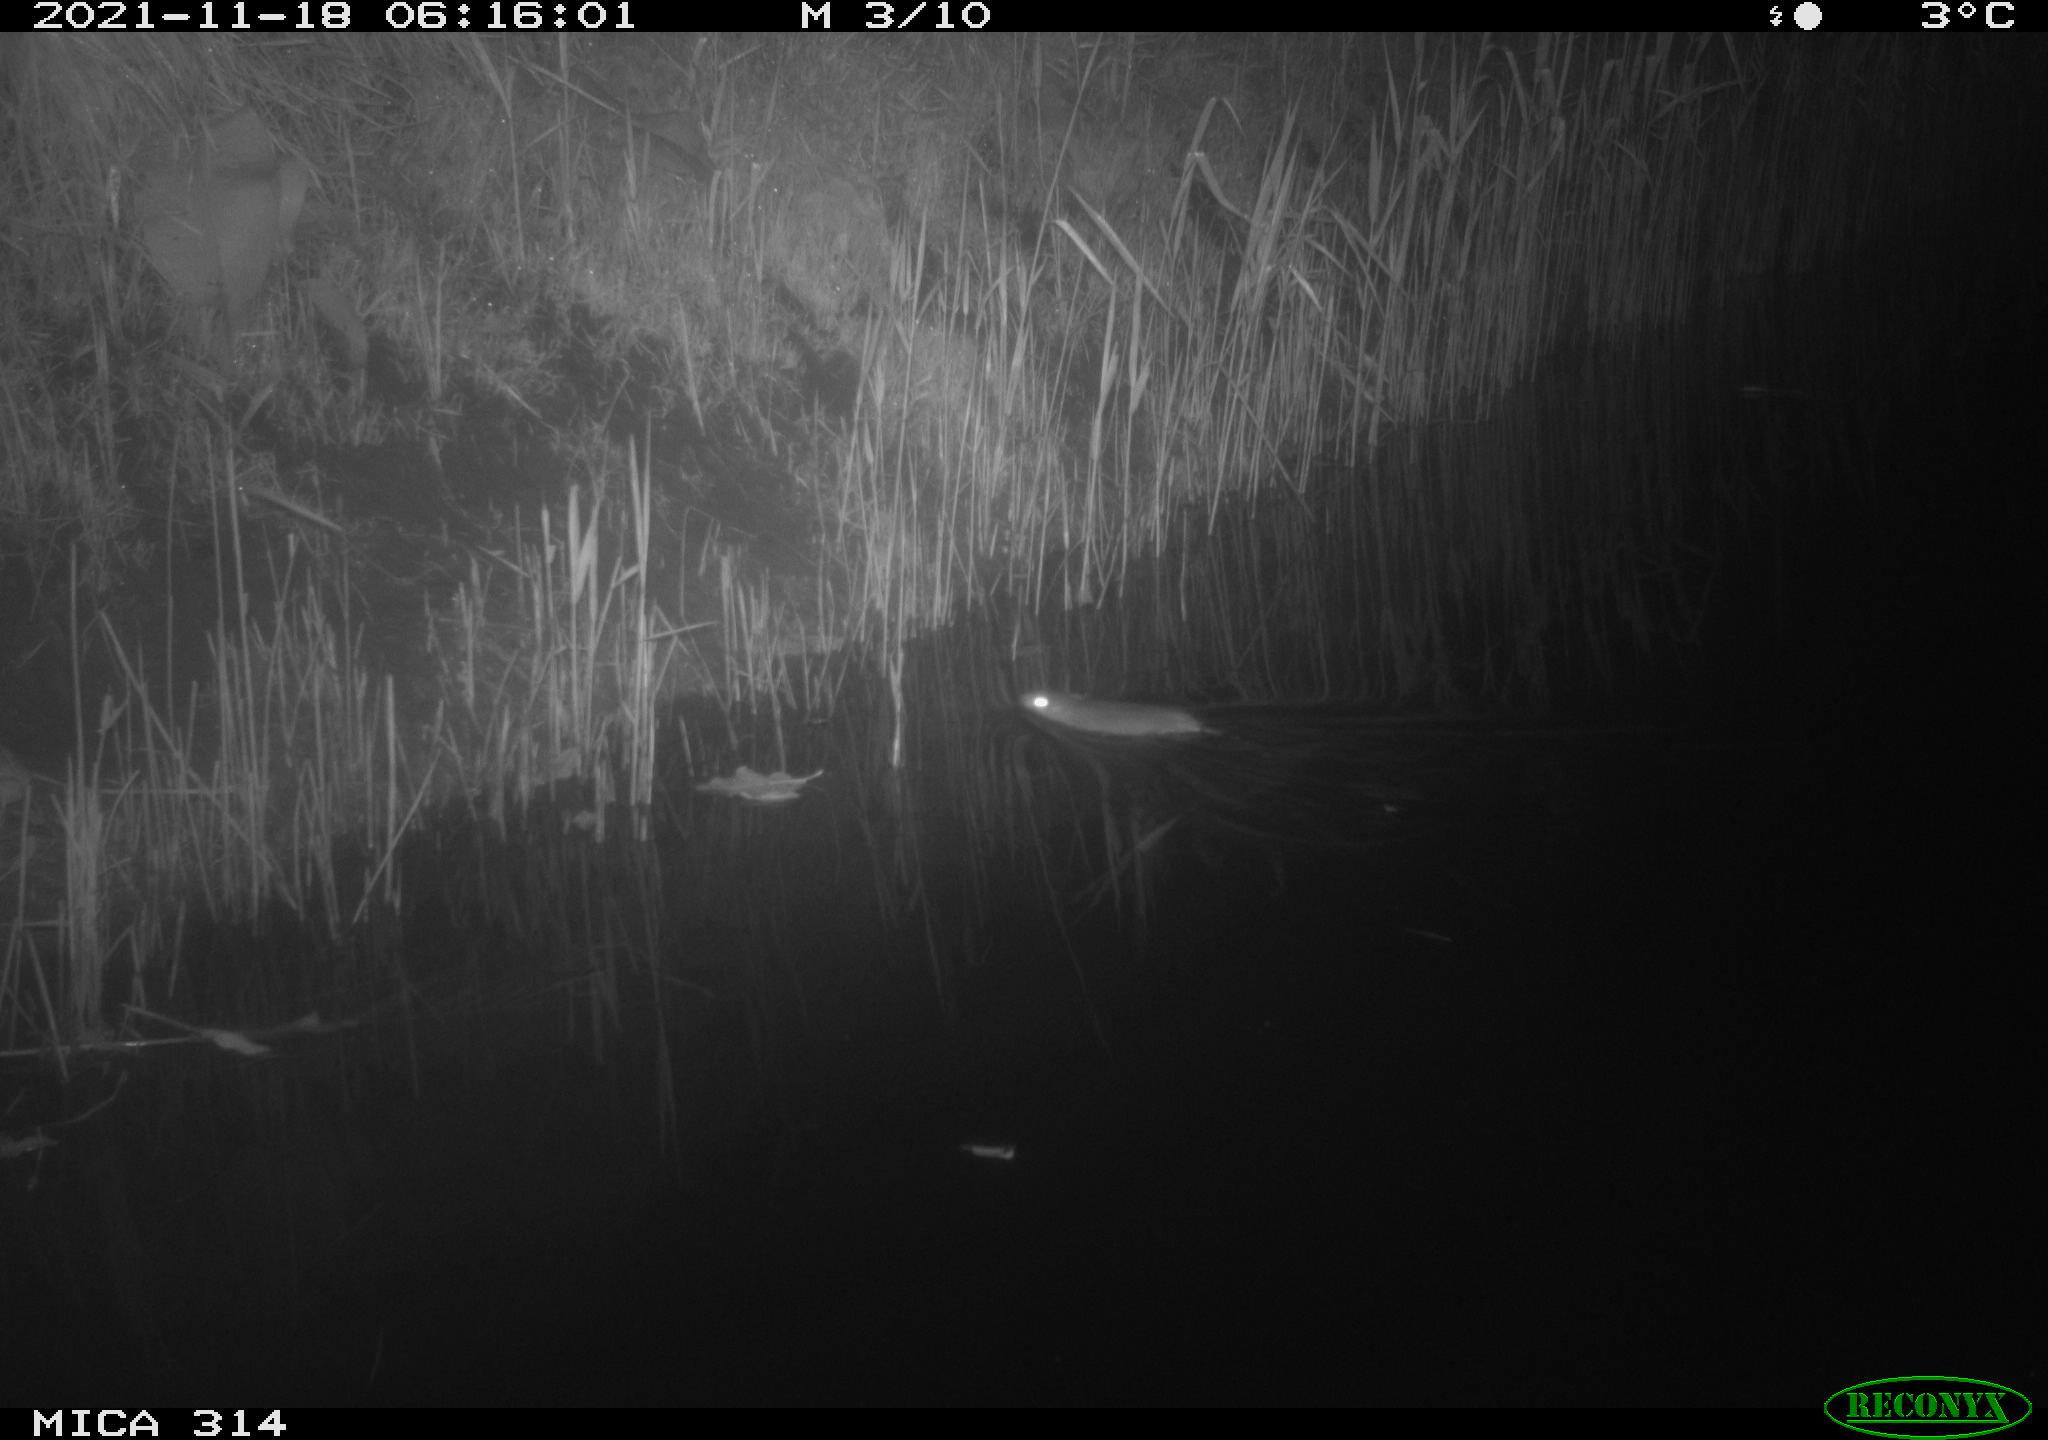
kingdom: Animalia
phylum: Chordata
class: Mammalia
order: Rodentia
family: Muridae
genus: Rattus
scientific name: Rattus norvegicus
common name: Brown rat
